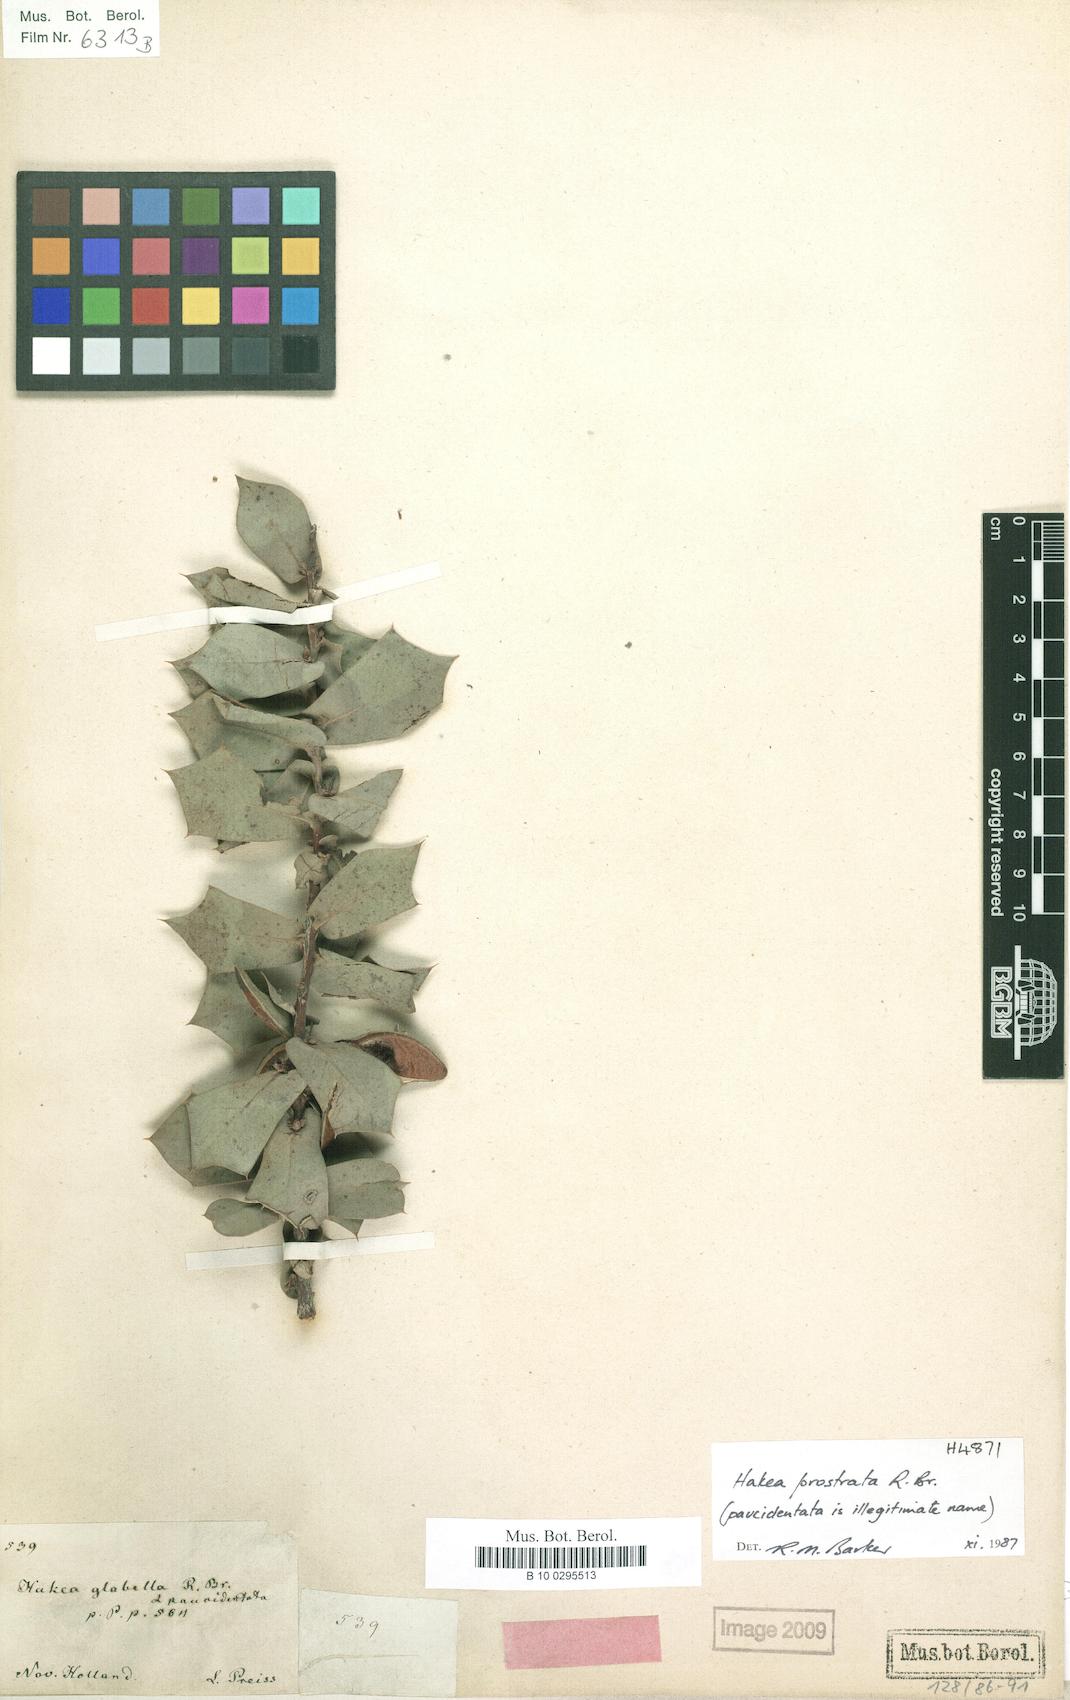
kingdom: Plantae
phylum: Tracheophyta
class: Magnoliopsida
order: Proteales
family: Proteaceae
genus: Hakea
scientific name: Hakea prostrata
